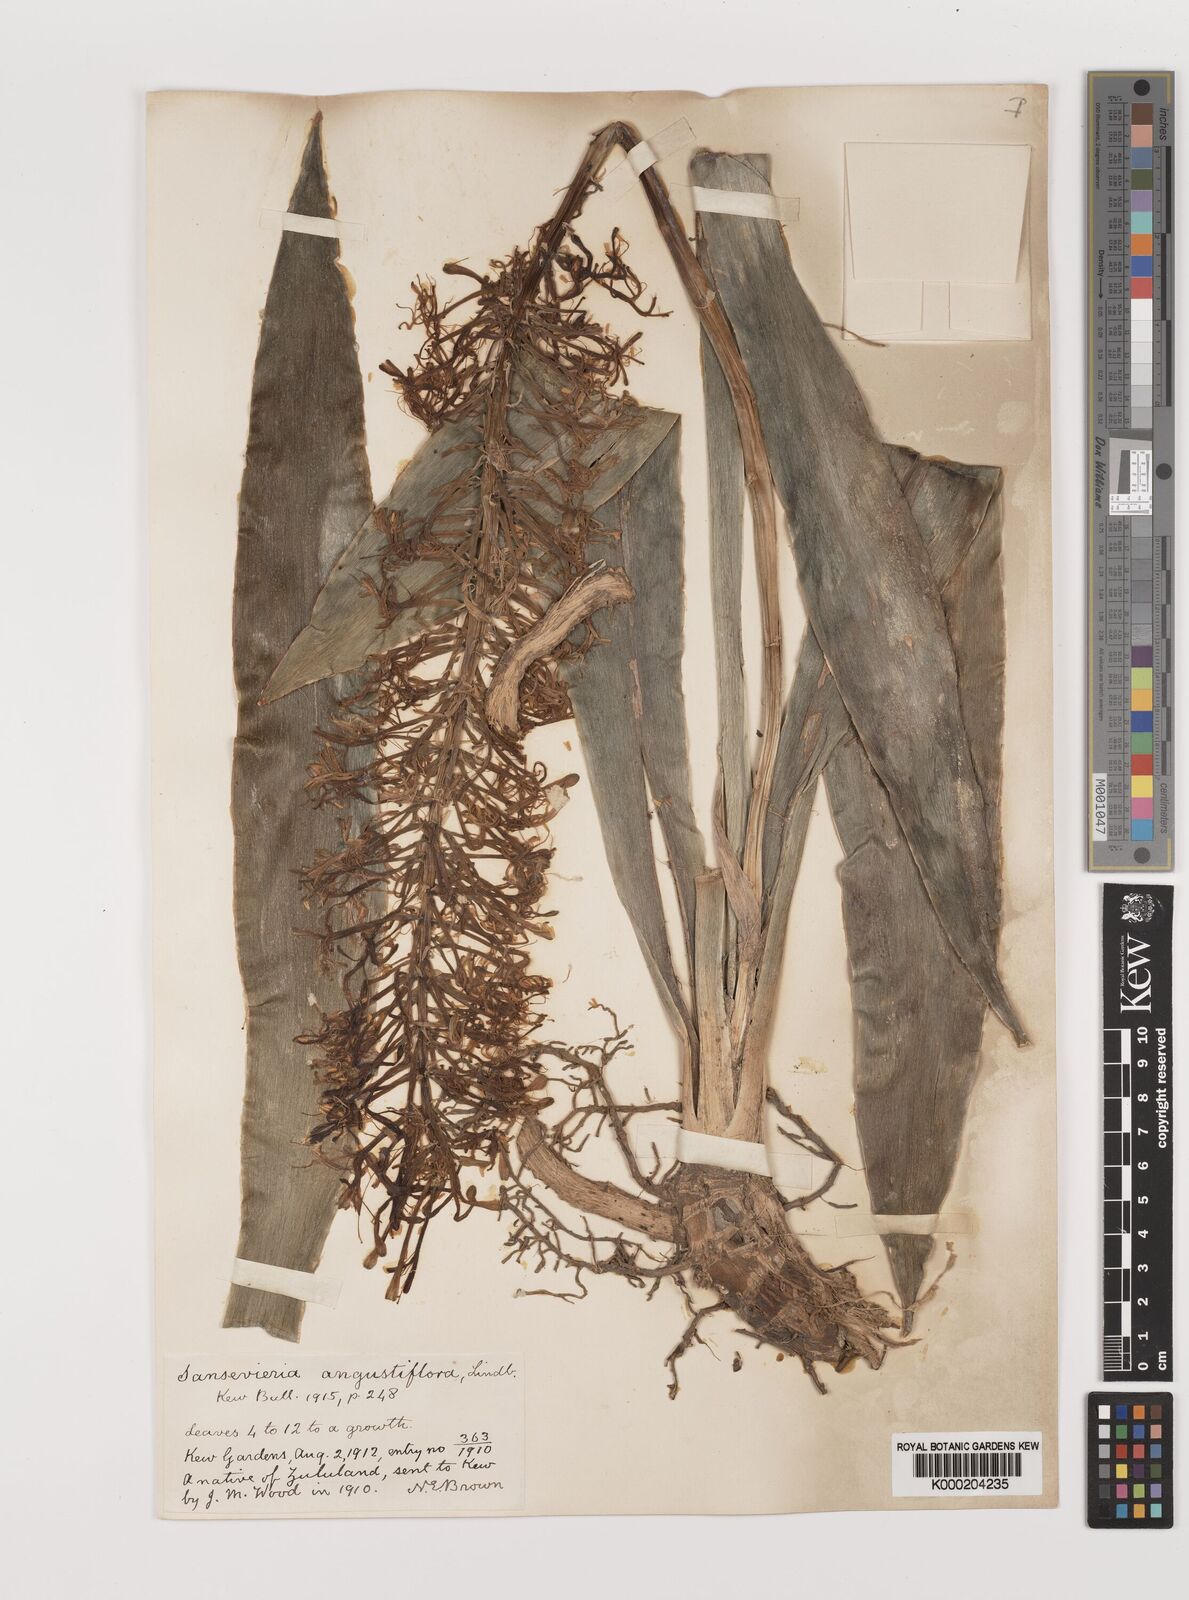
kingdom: Plantae
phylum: Tracheophyta
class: Liliopsida
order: Asparagales
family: Asparagaceae
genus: Dracaena
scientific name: Dracaena hyacinthoides
